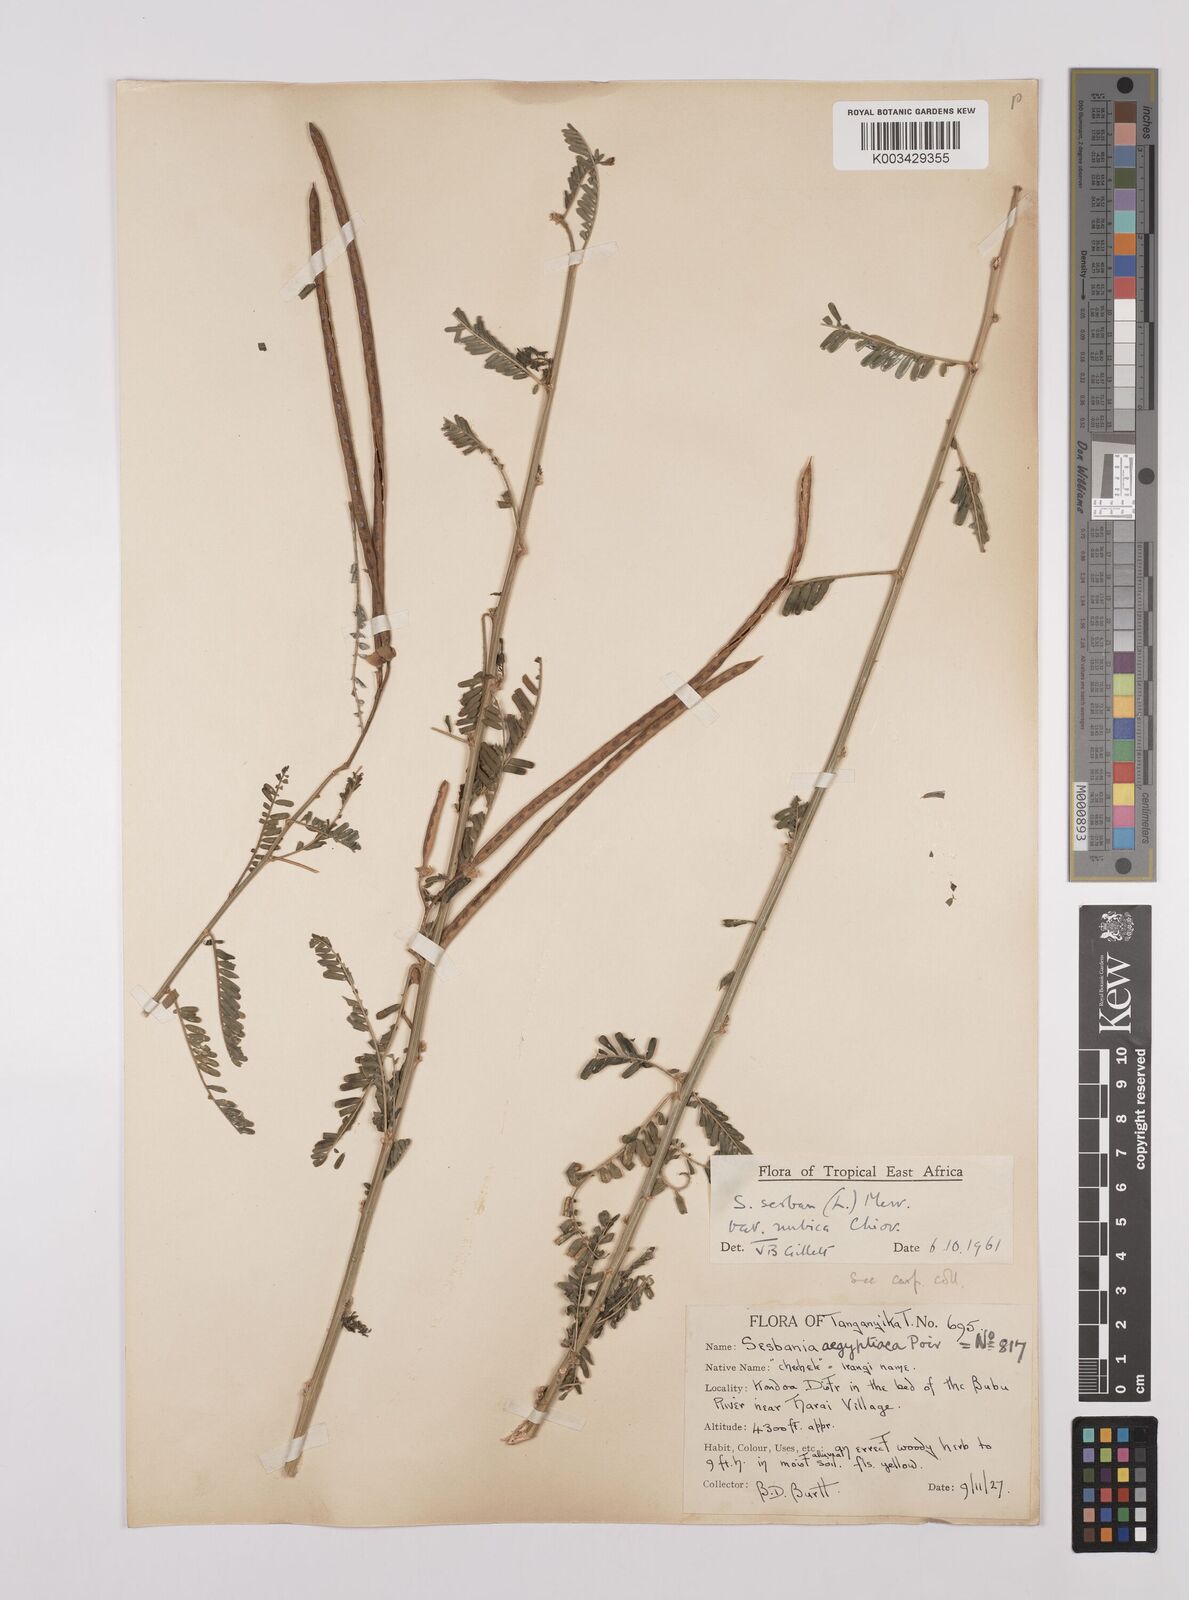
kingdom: Plantae
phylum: Tracheophyta
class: Magnoliopsida
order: Fabales
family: Fabaceae
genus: Sesbania
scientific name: Sesbania sesban
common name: Egyptian sesban
